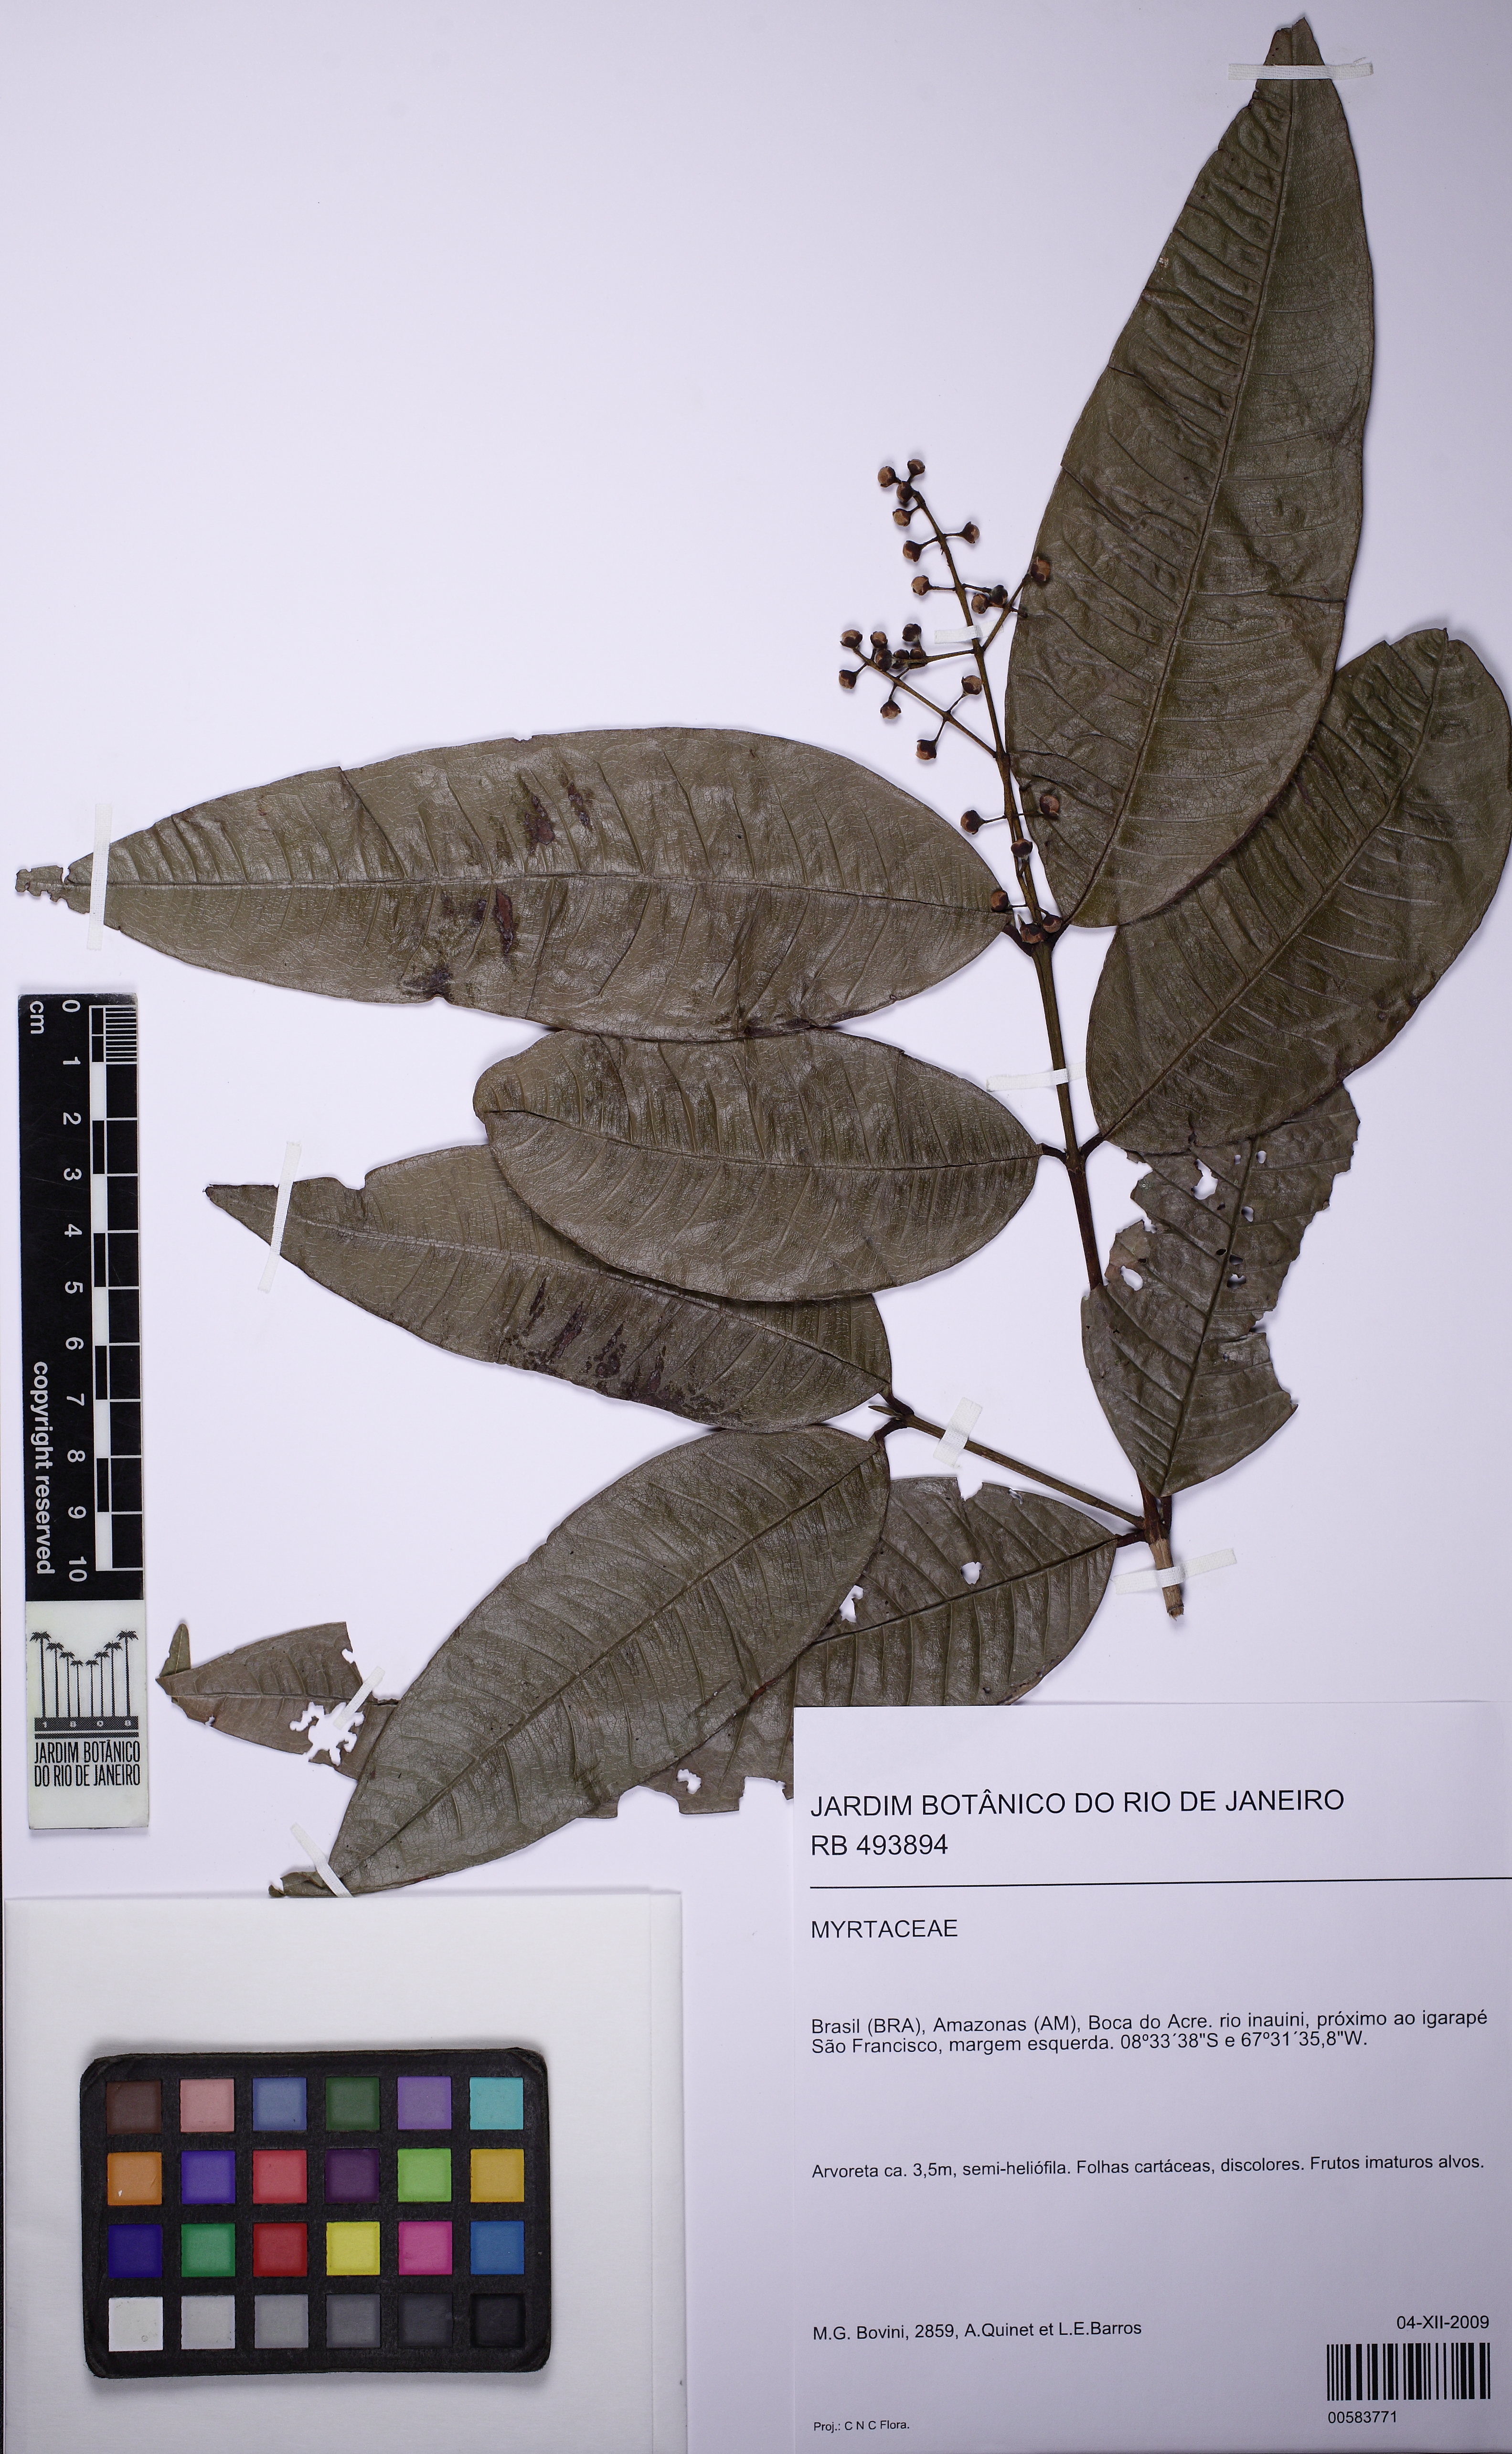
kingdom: Plantae
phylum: Tracheophyta
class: Magnoliopsida
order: Myrtales
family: Myrtaceae
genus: Myrcia
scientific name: Myrcia coumete
